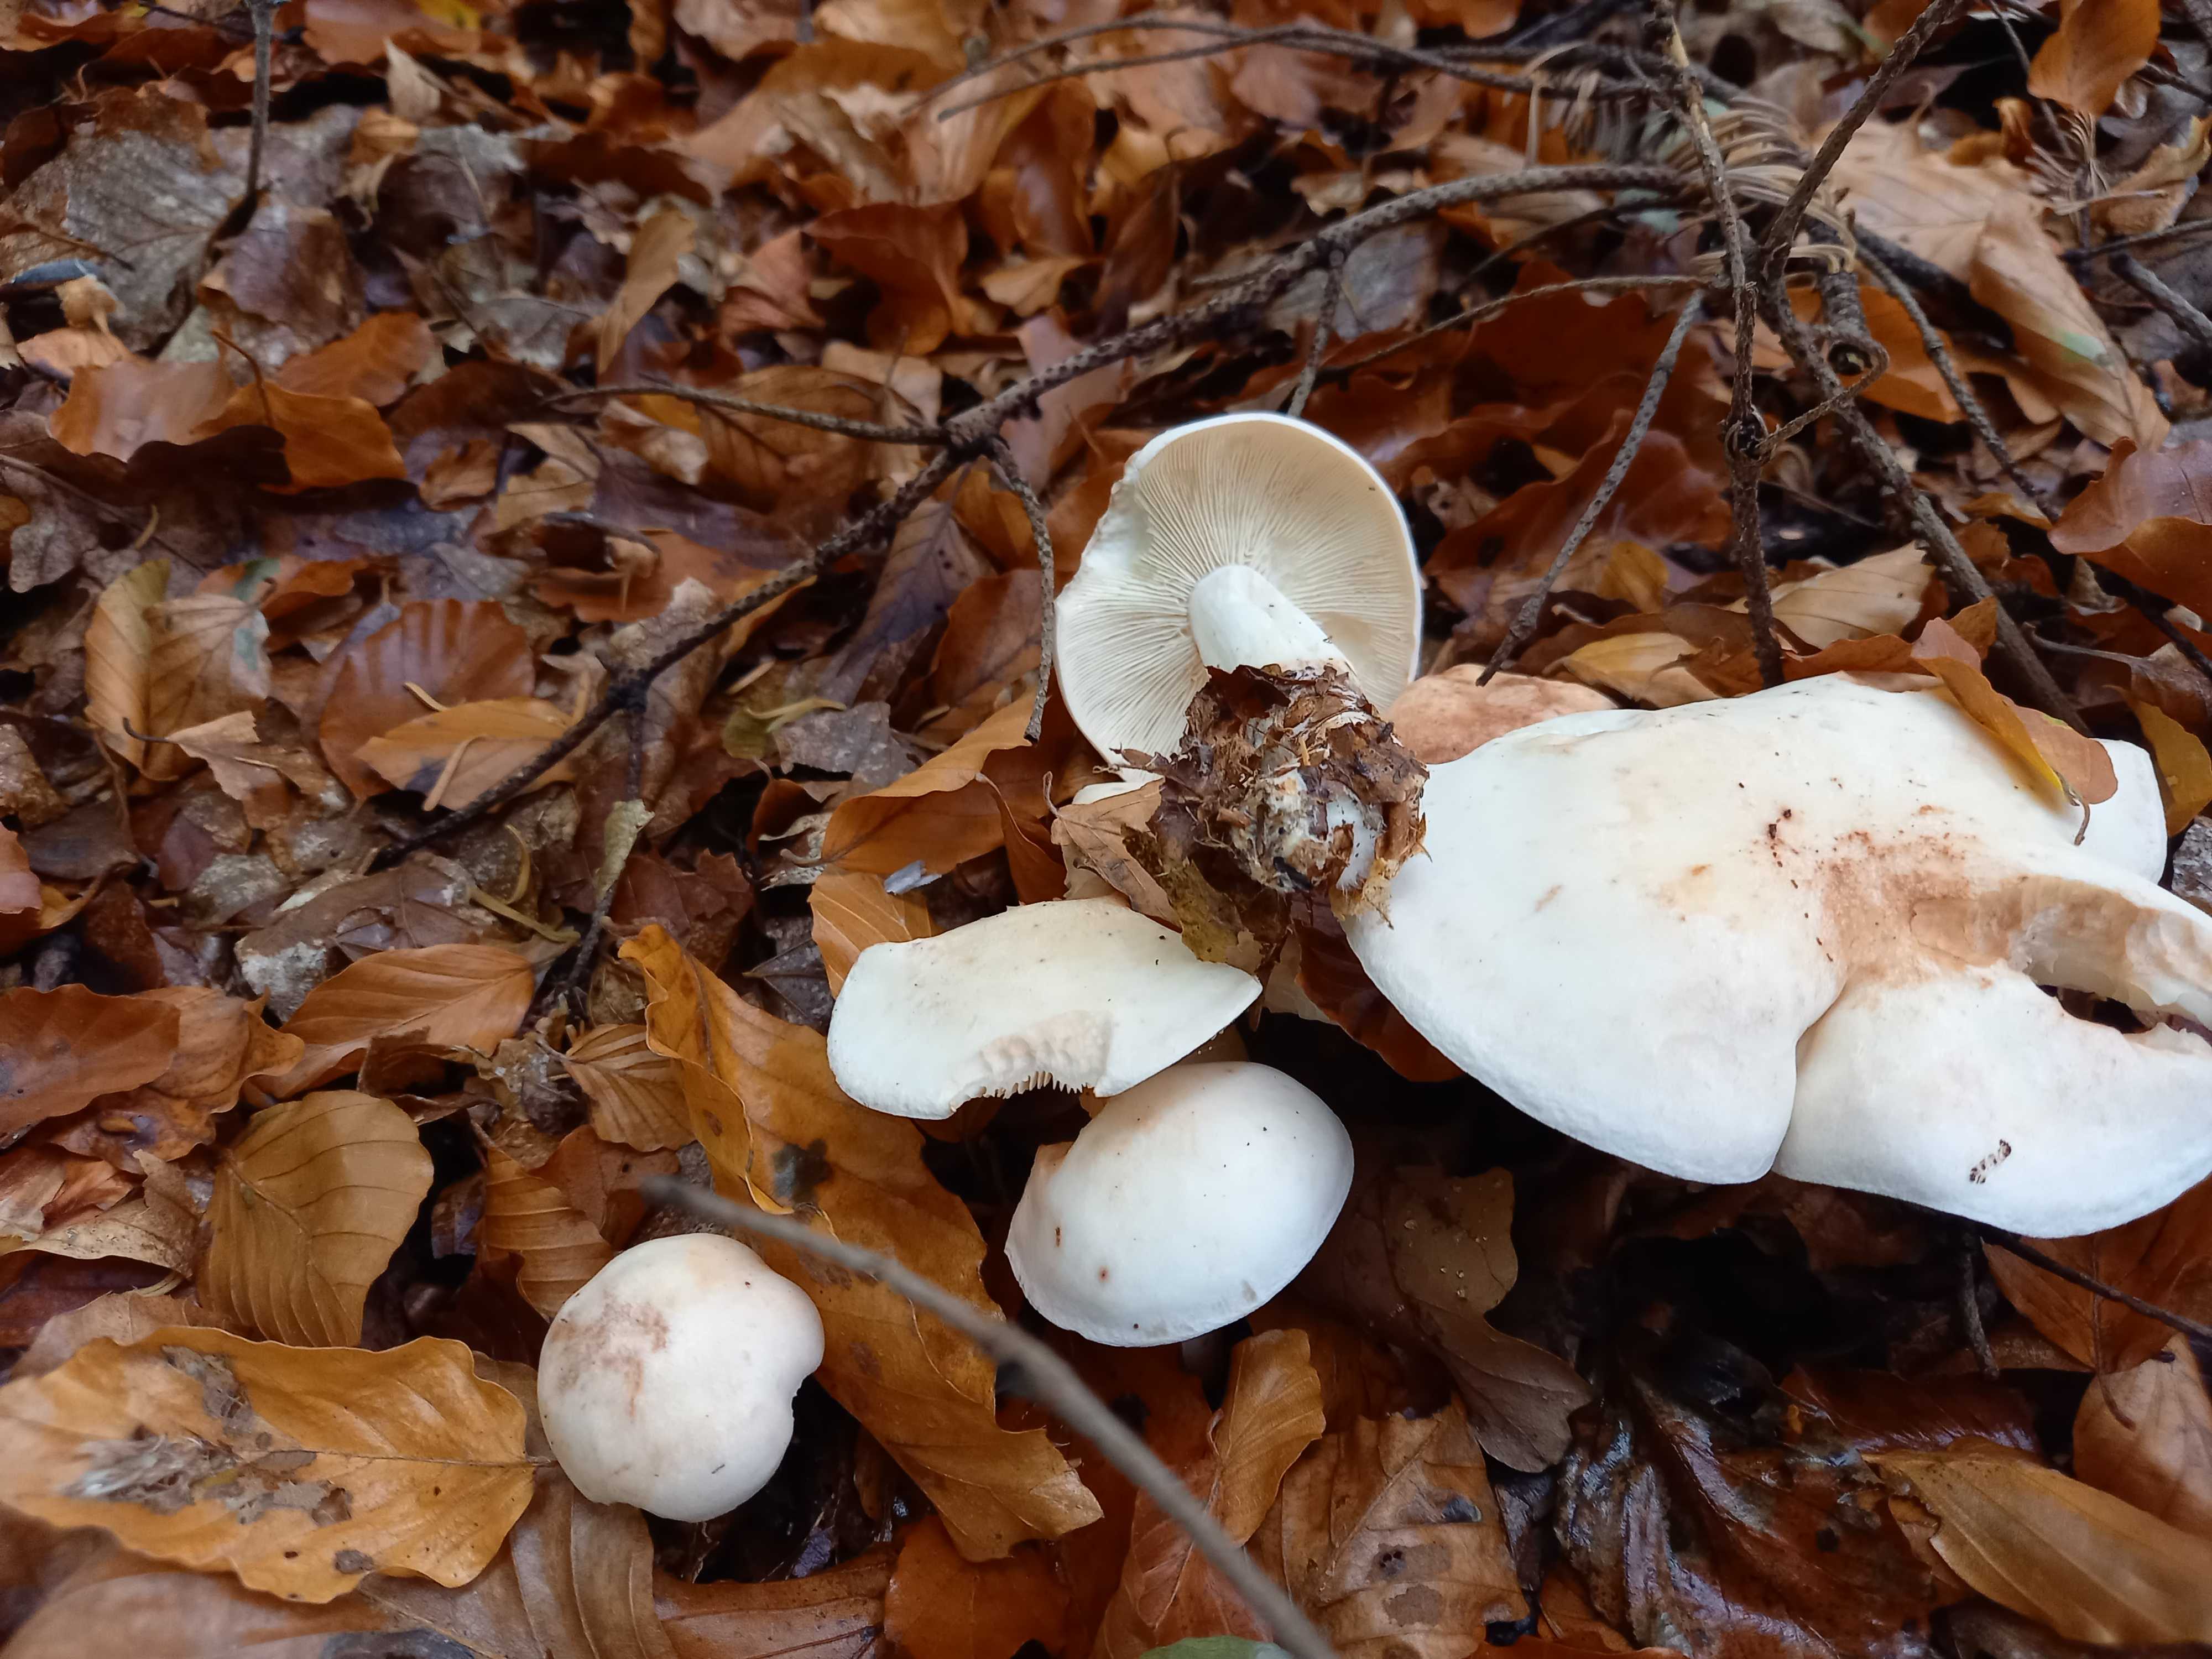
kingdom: Fungi
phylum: Basidiomycota
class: Agaricomycetes
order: Agaricales
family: Omphalotaceae
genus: Rhodocollybia
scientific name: Rhodocollybia maculata
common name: plettet fladhat
